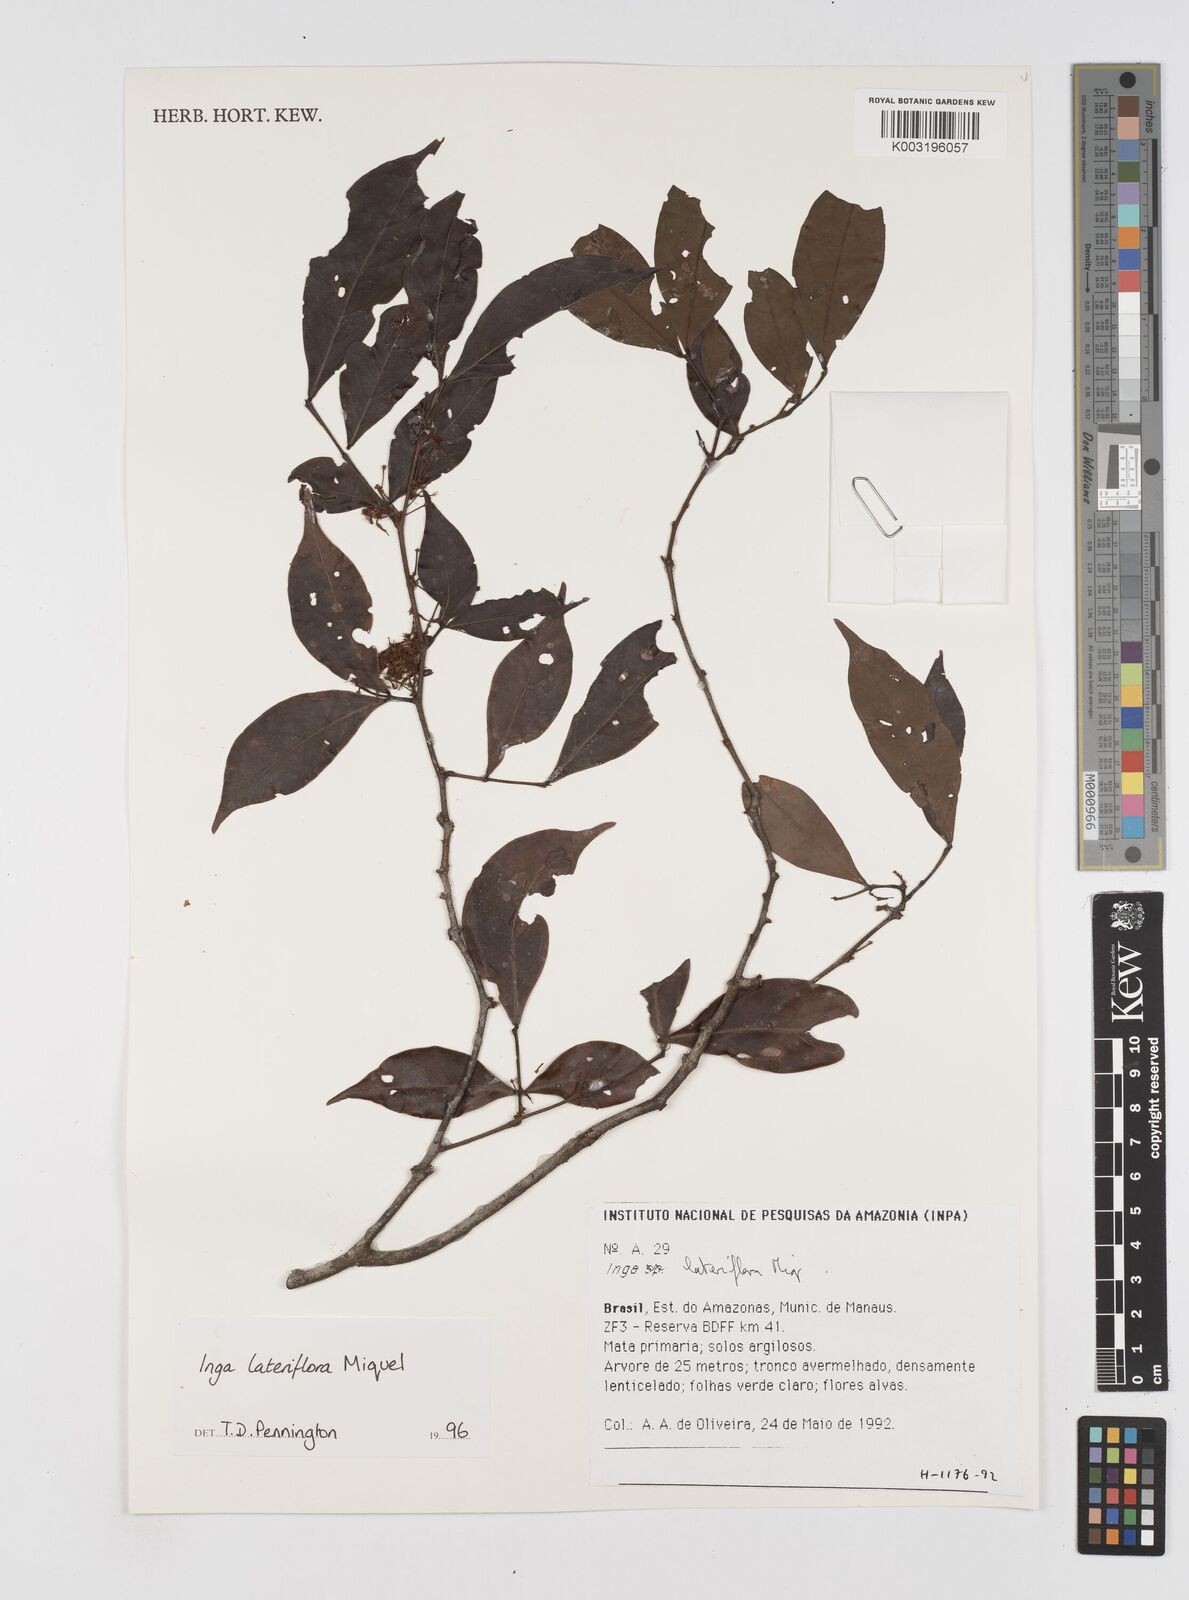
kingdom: Plantae
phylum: Tracheophyta
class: Magnoliopsida
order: Fabales
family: Fabaceae
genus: Inga
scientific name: Inga lateriflora
